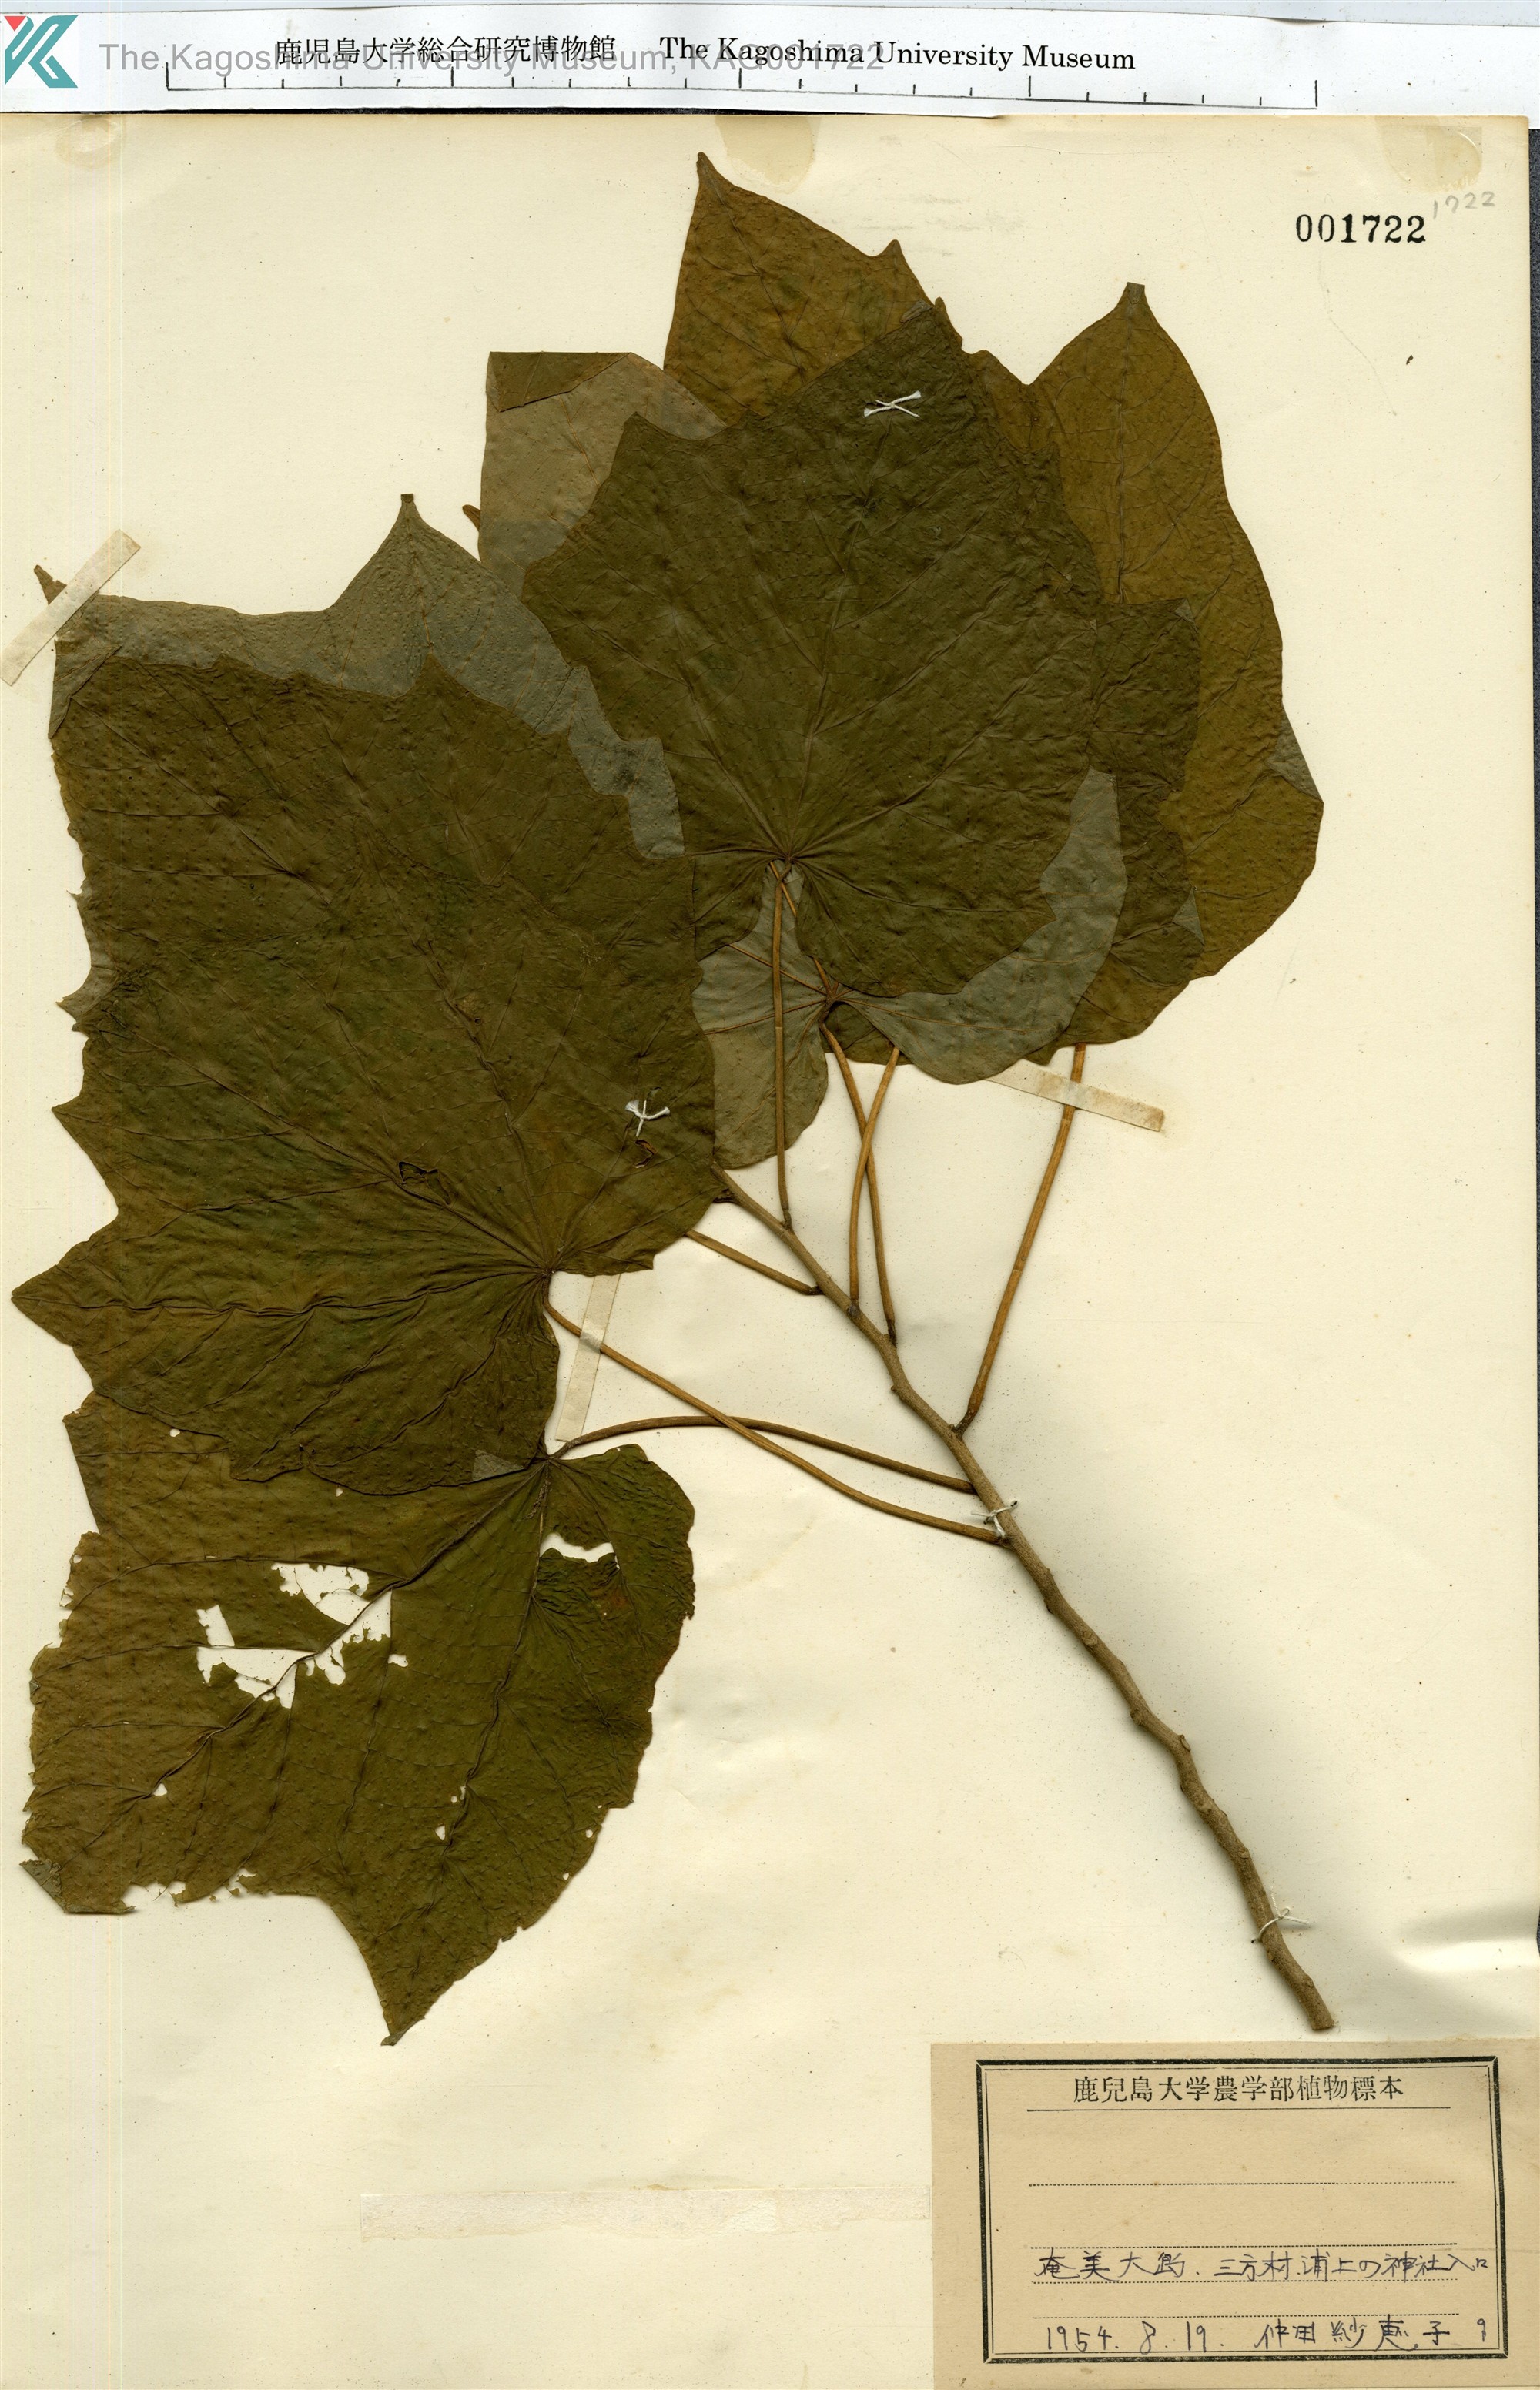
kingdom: Plantae
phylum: Tracheophyta
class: Magnoliopsida
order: Cornales
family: Cornaceae
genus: Alangium
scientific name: Alangium premnifolium
